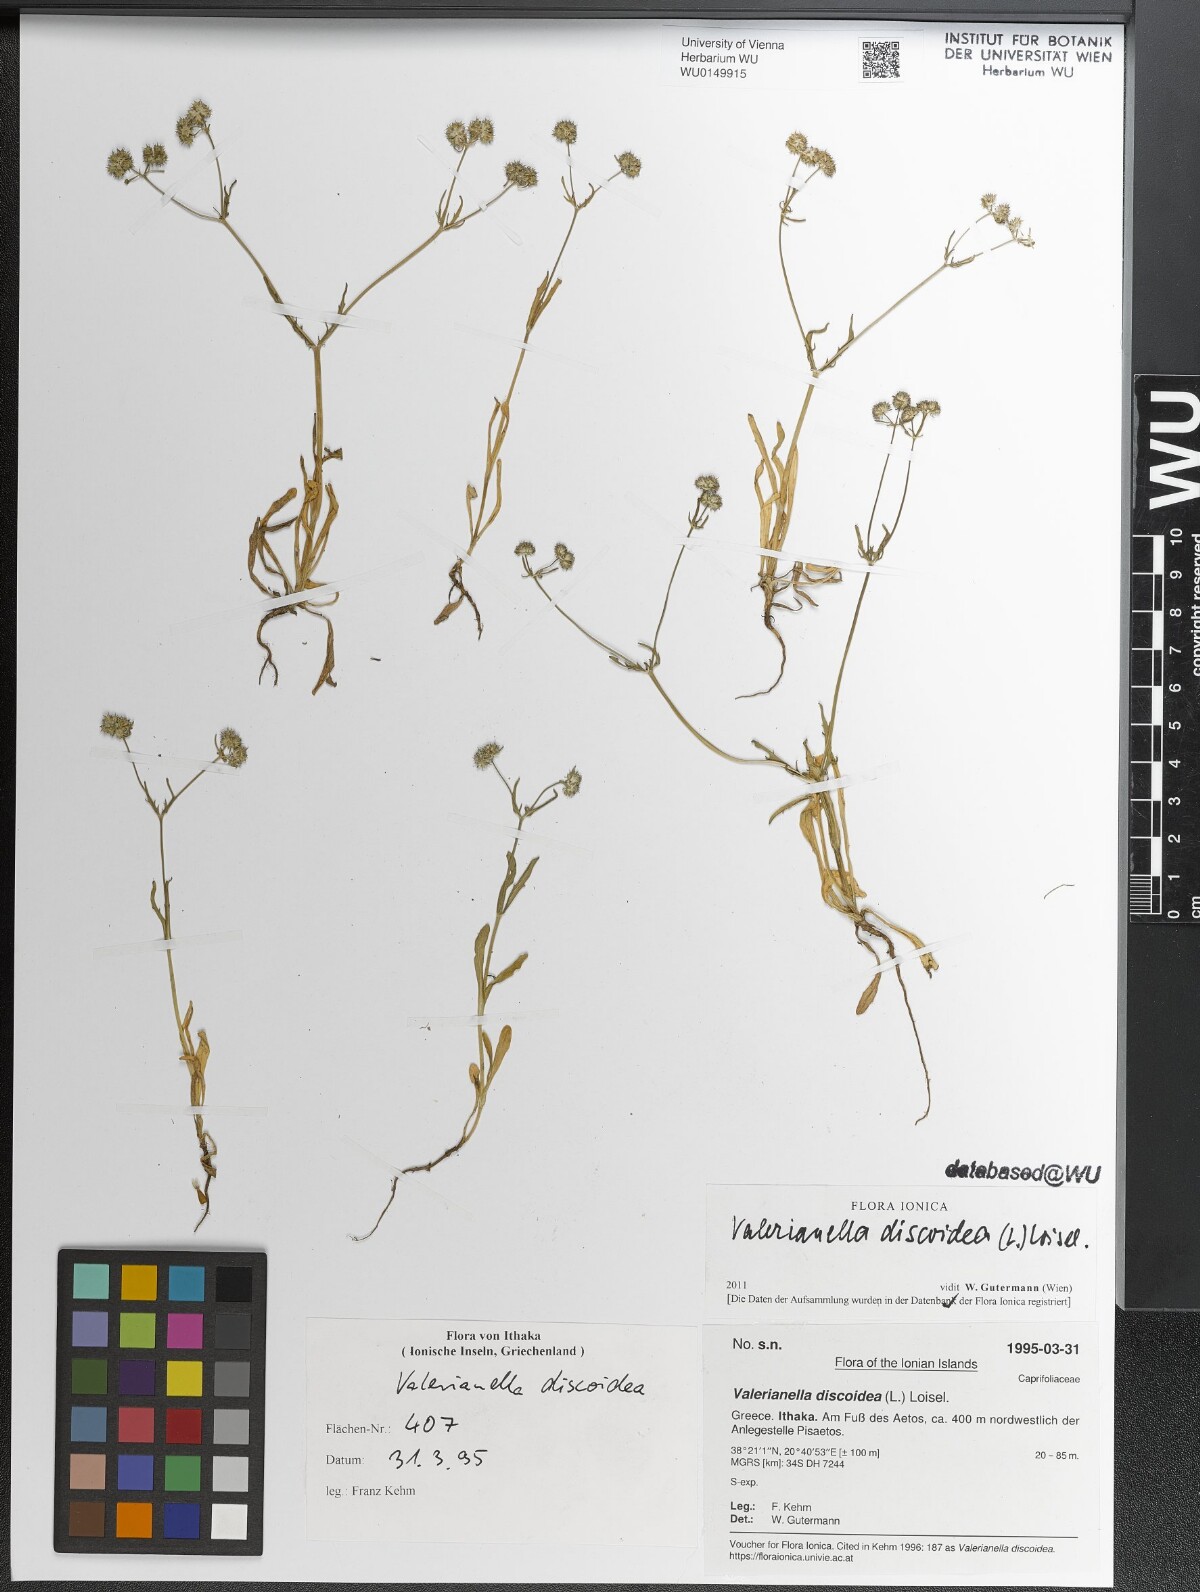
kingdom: Plantae
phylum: Tracheophyta
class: Magnoliopsida
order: Dipsacales
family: Caprifoliaceae
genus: Valerianella
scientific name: Valerianella discoidea
